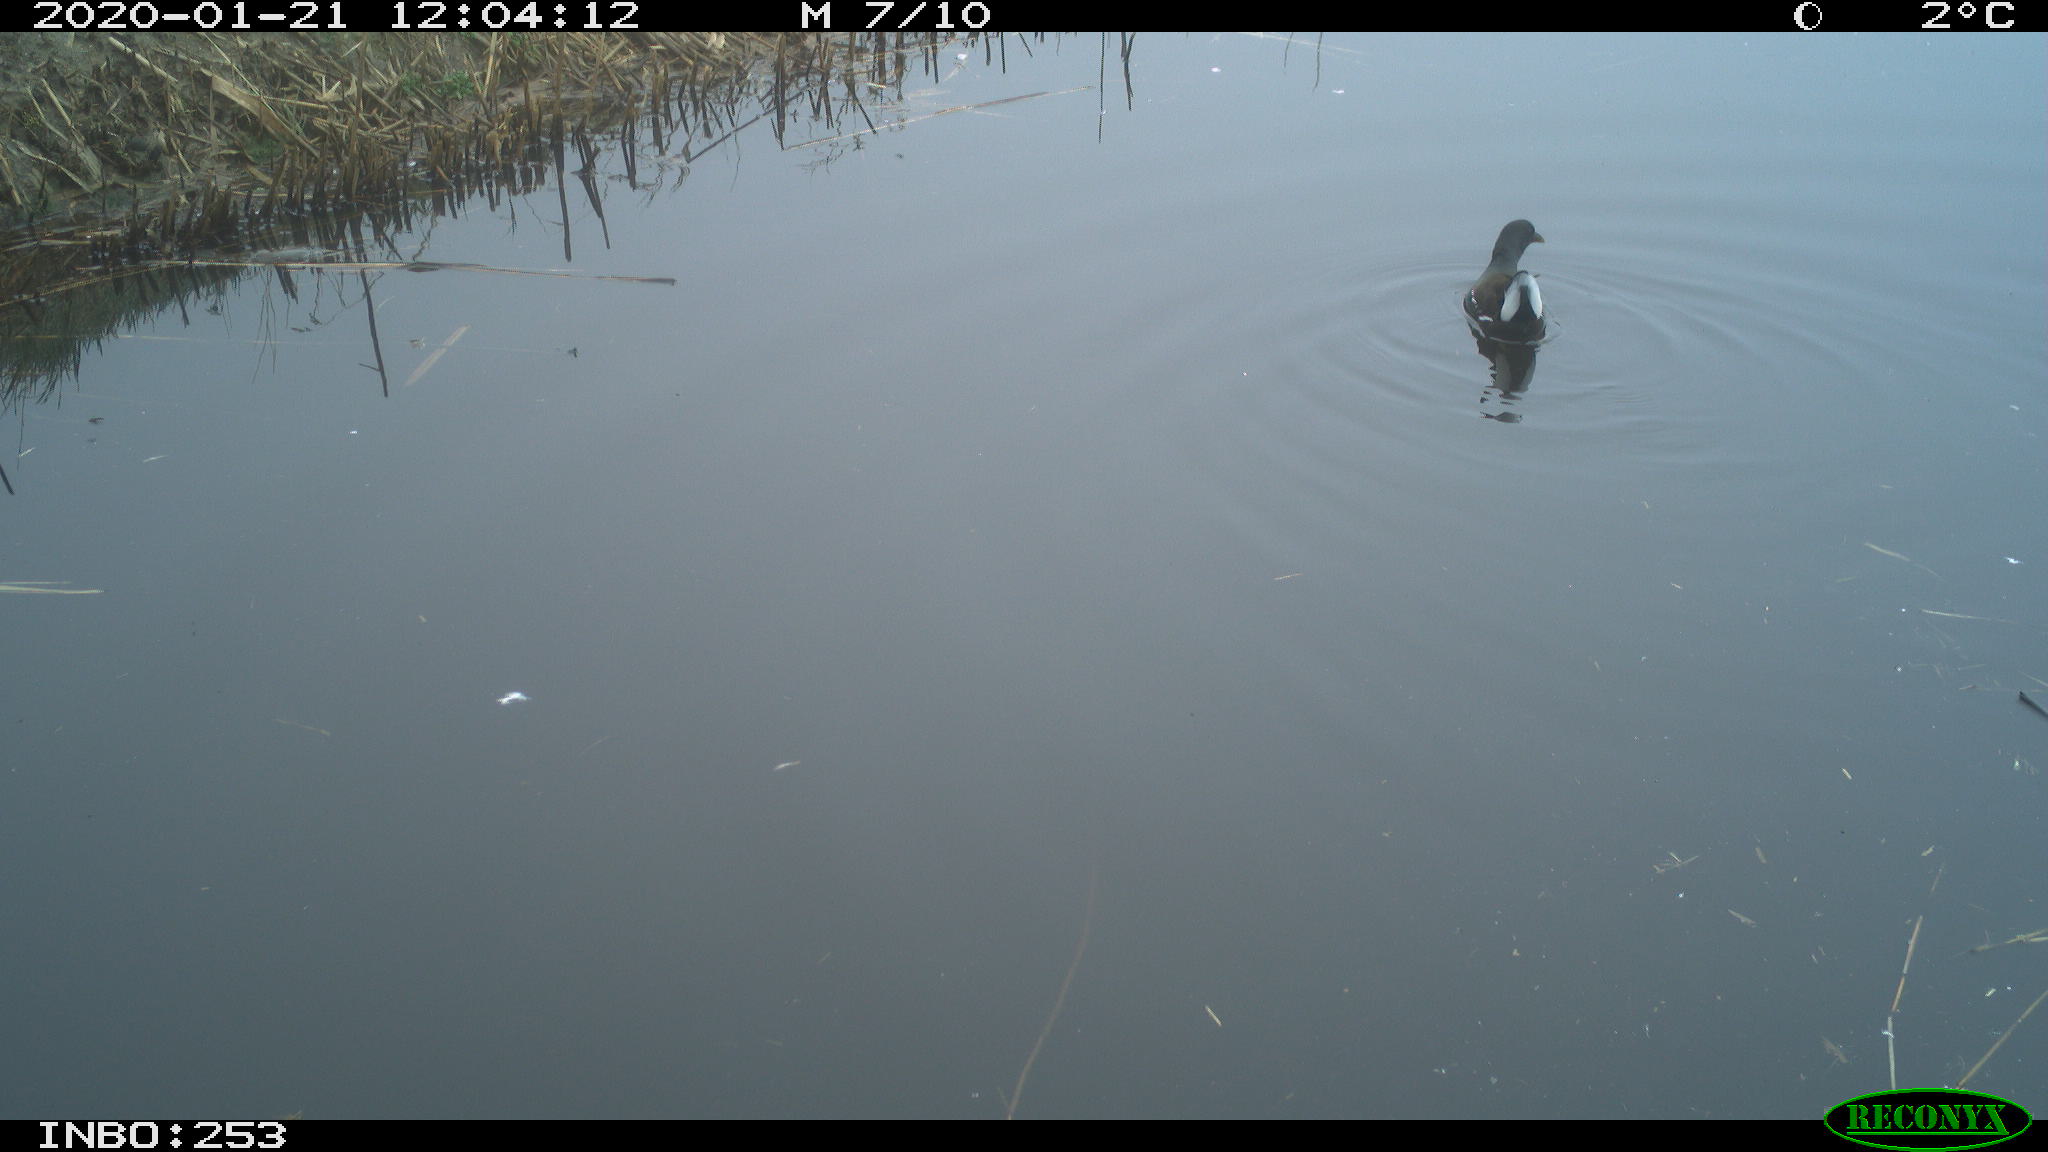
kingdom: Animalia
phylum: Chordata
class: Aves
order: Gruiformes
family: Rallidae
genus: Gallinula
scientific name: Gallinula chloropus
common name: Common moorhen
